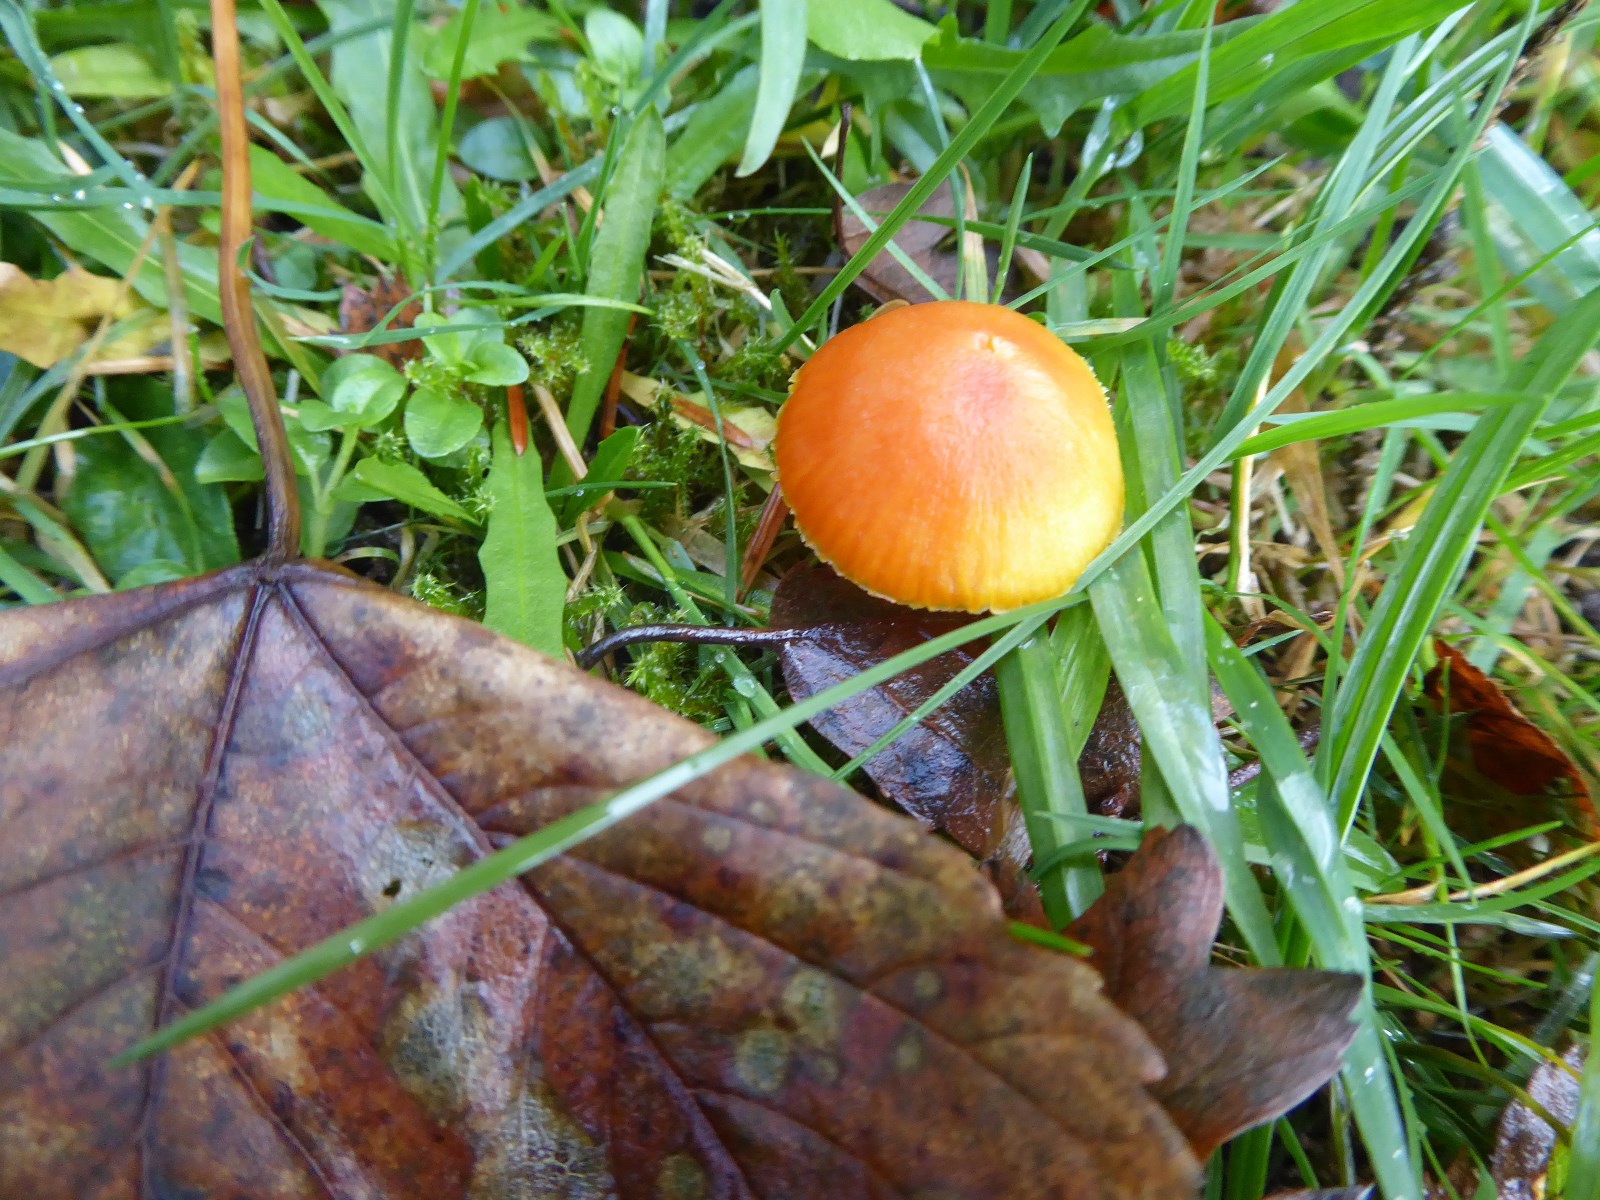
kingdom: Fungi
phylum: Basidiomycota
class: Agaricomycetes
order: Agaricales
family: Hygrophoraceae
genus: Hygrocybe
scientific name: Hygrocybe miniata
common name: mønje-vokshat
